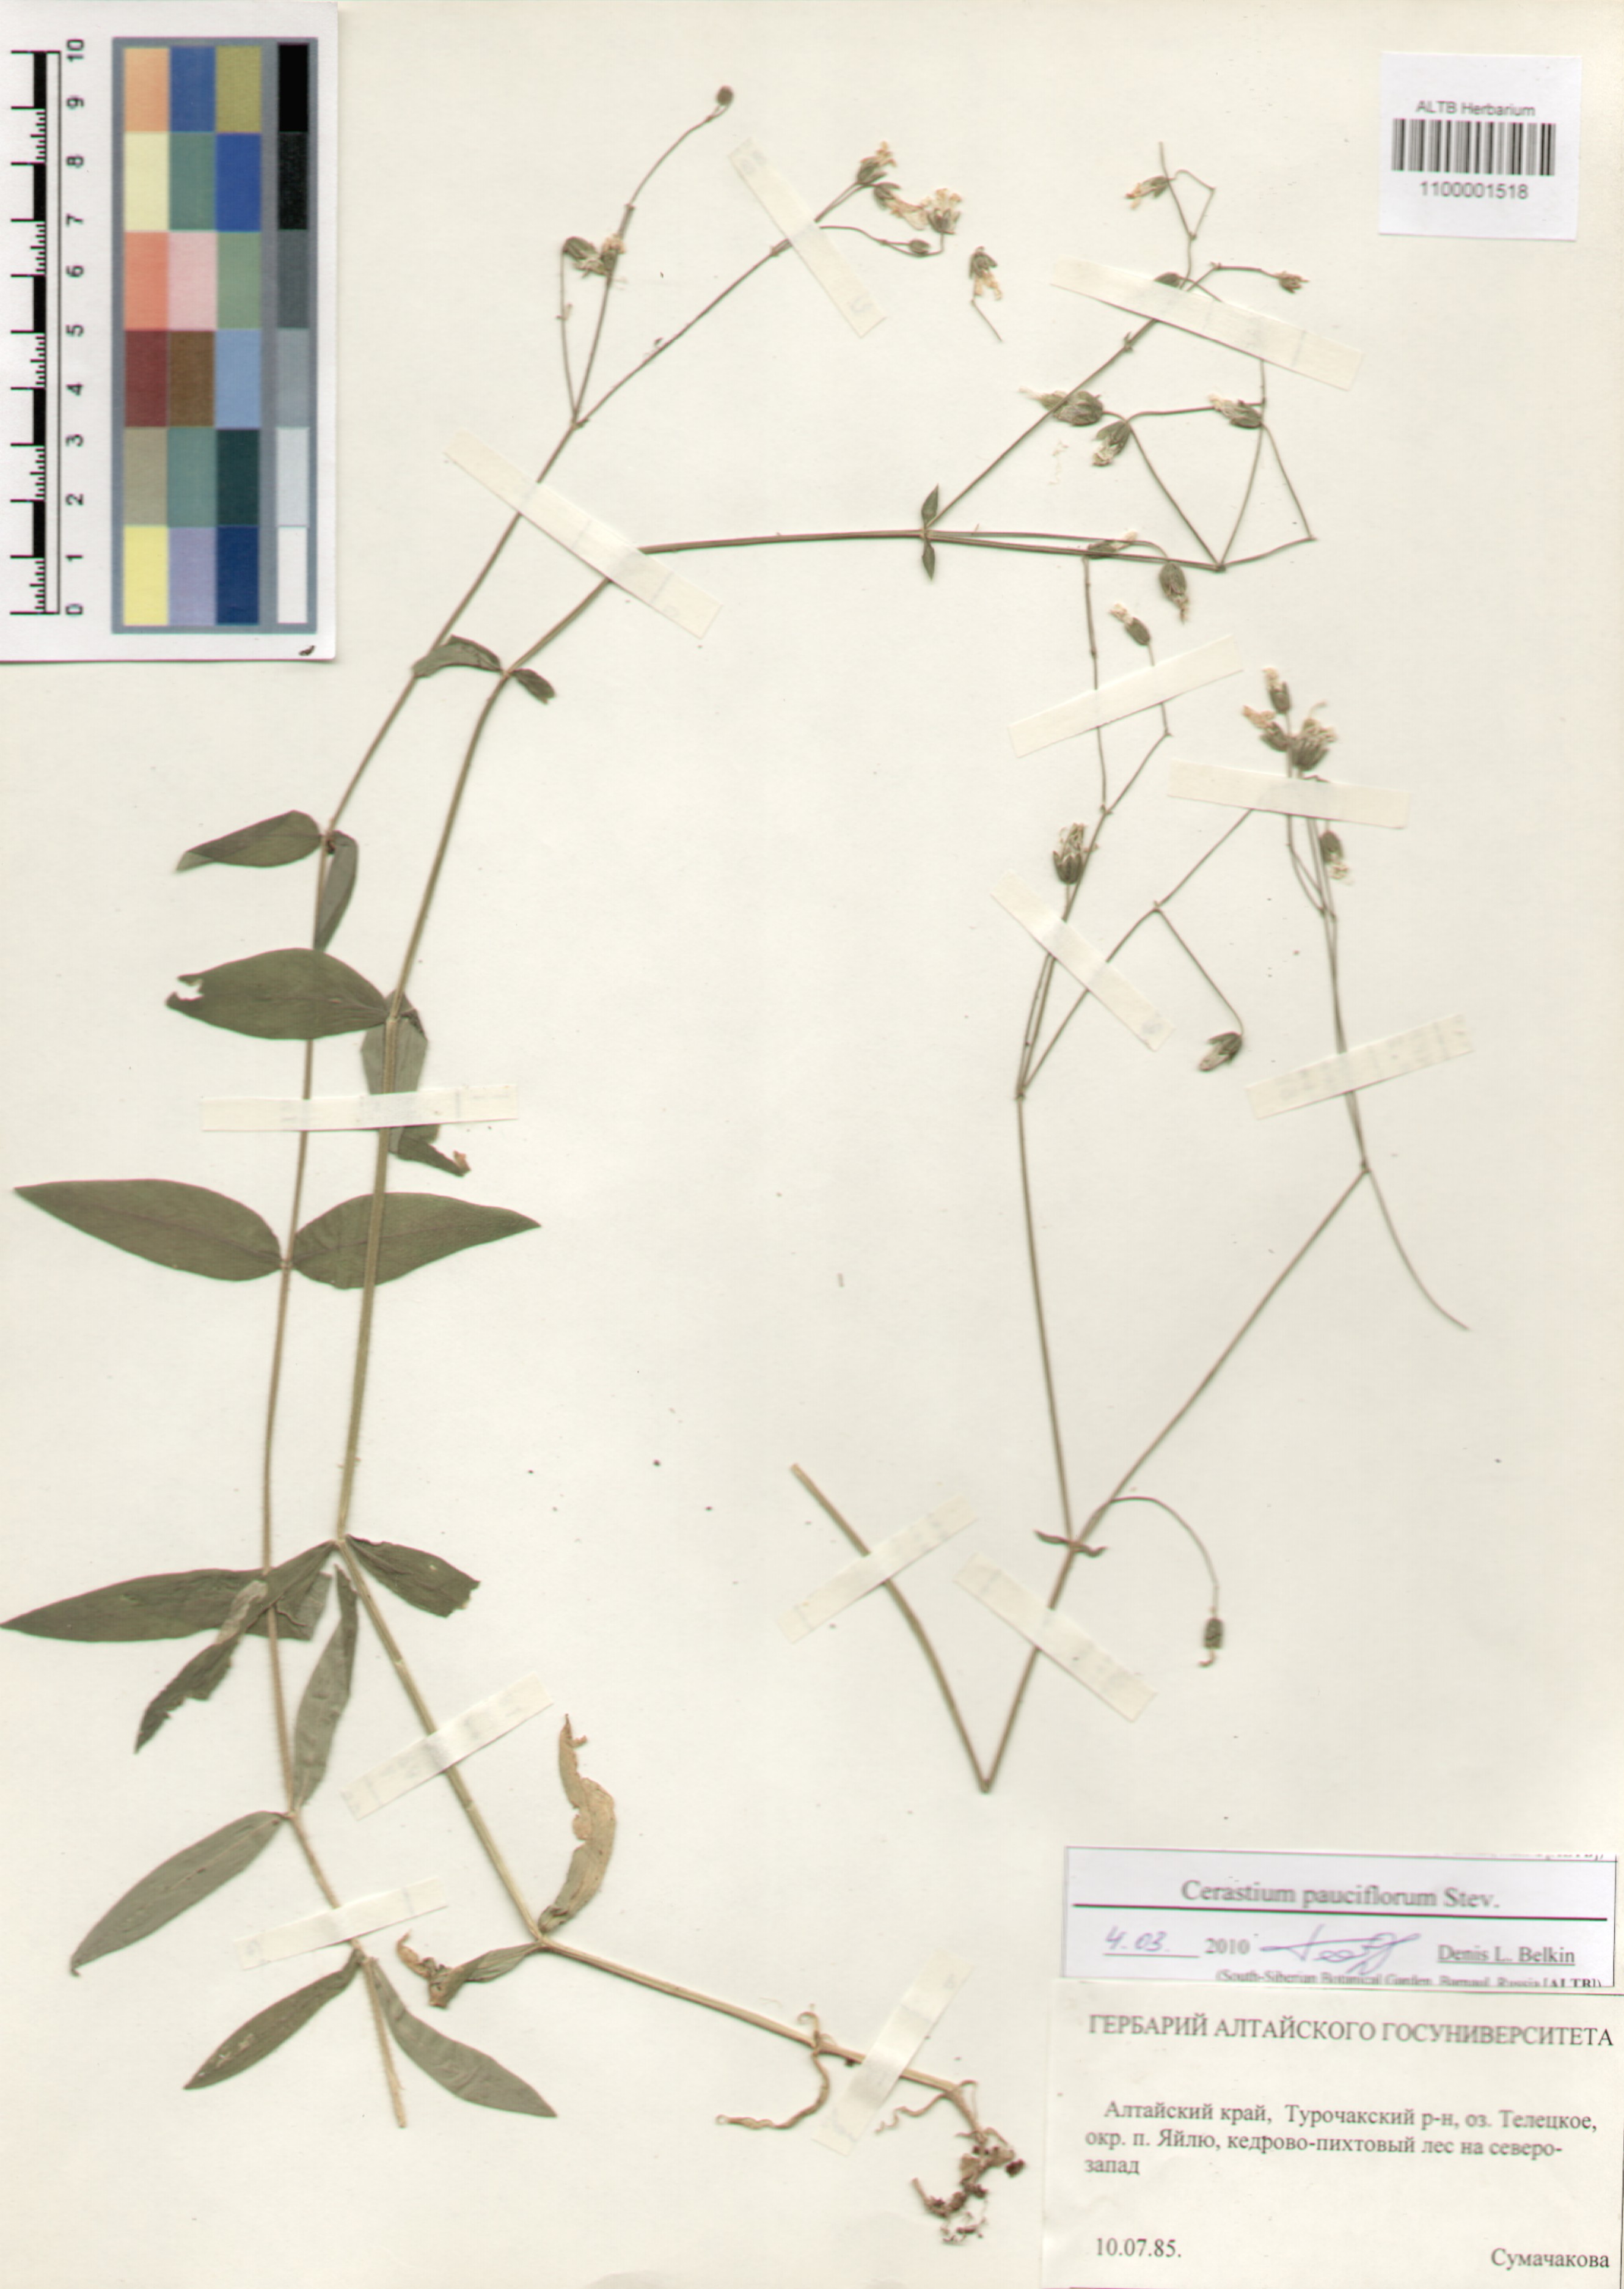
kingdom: Plantae
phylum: Tracheophyta
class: Magnoliopsida
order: Caryophyllales
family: Caryophyllaceae
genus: Cerastium
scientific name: Cerastium pauciflorum
